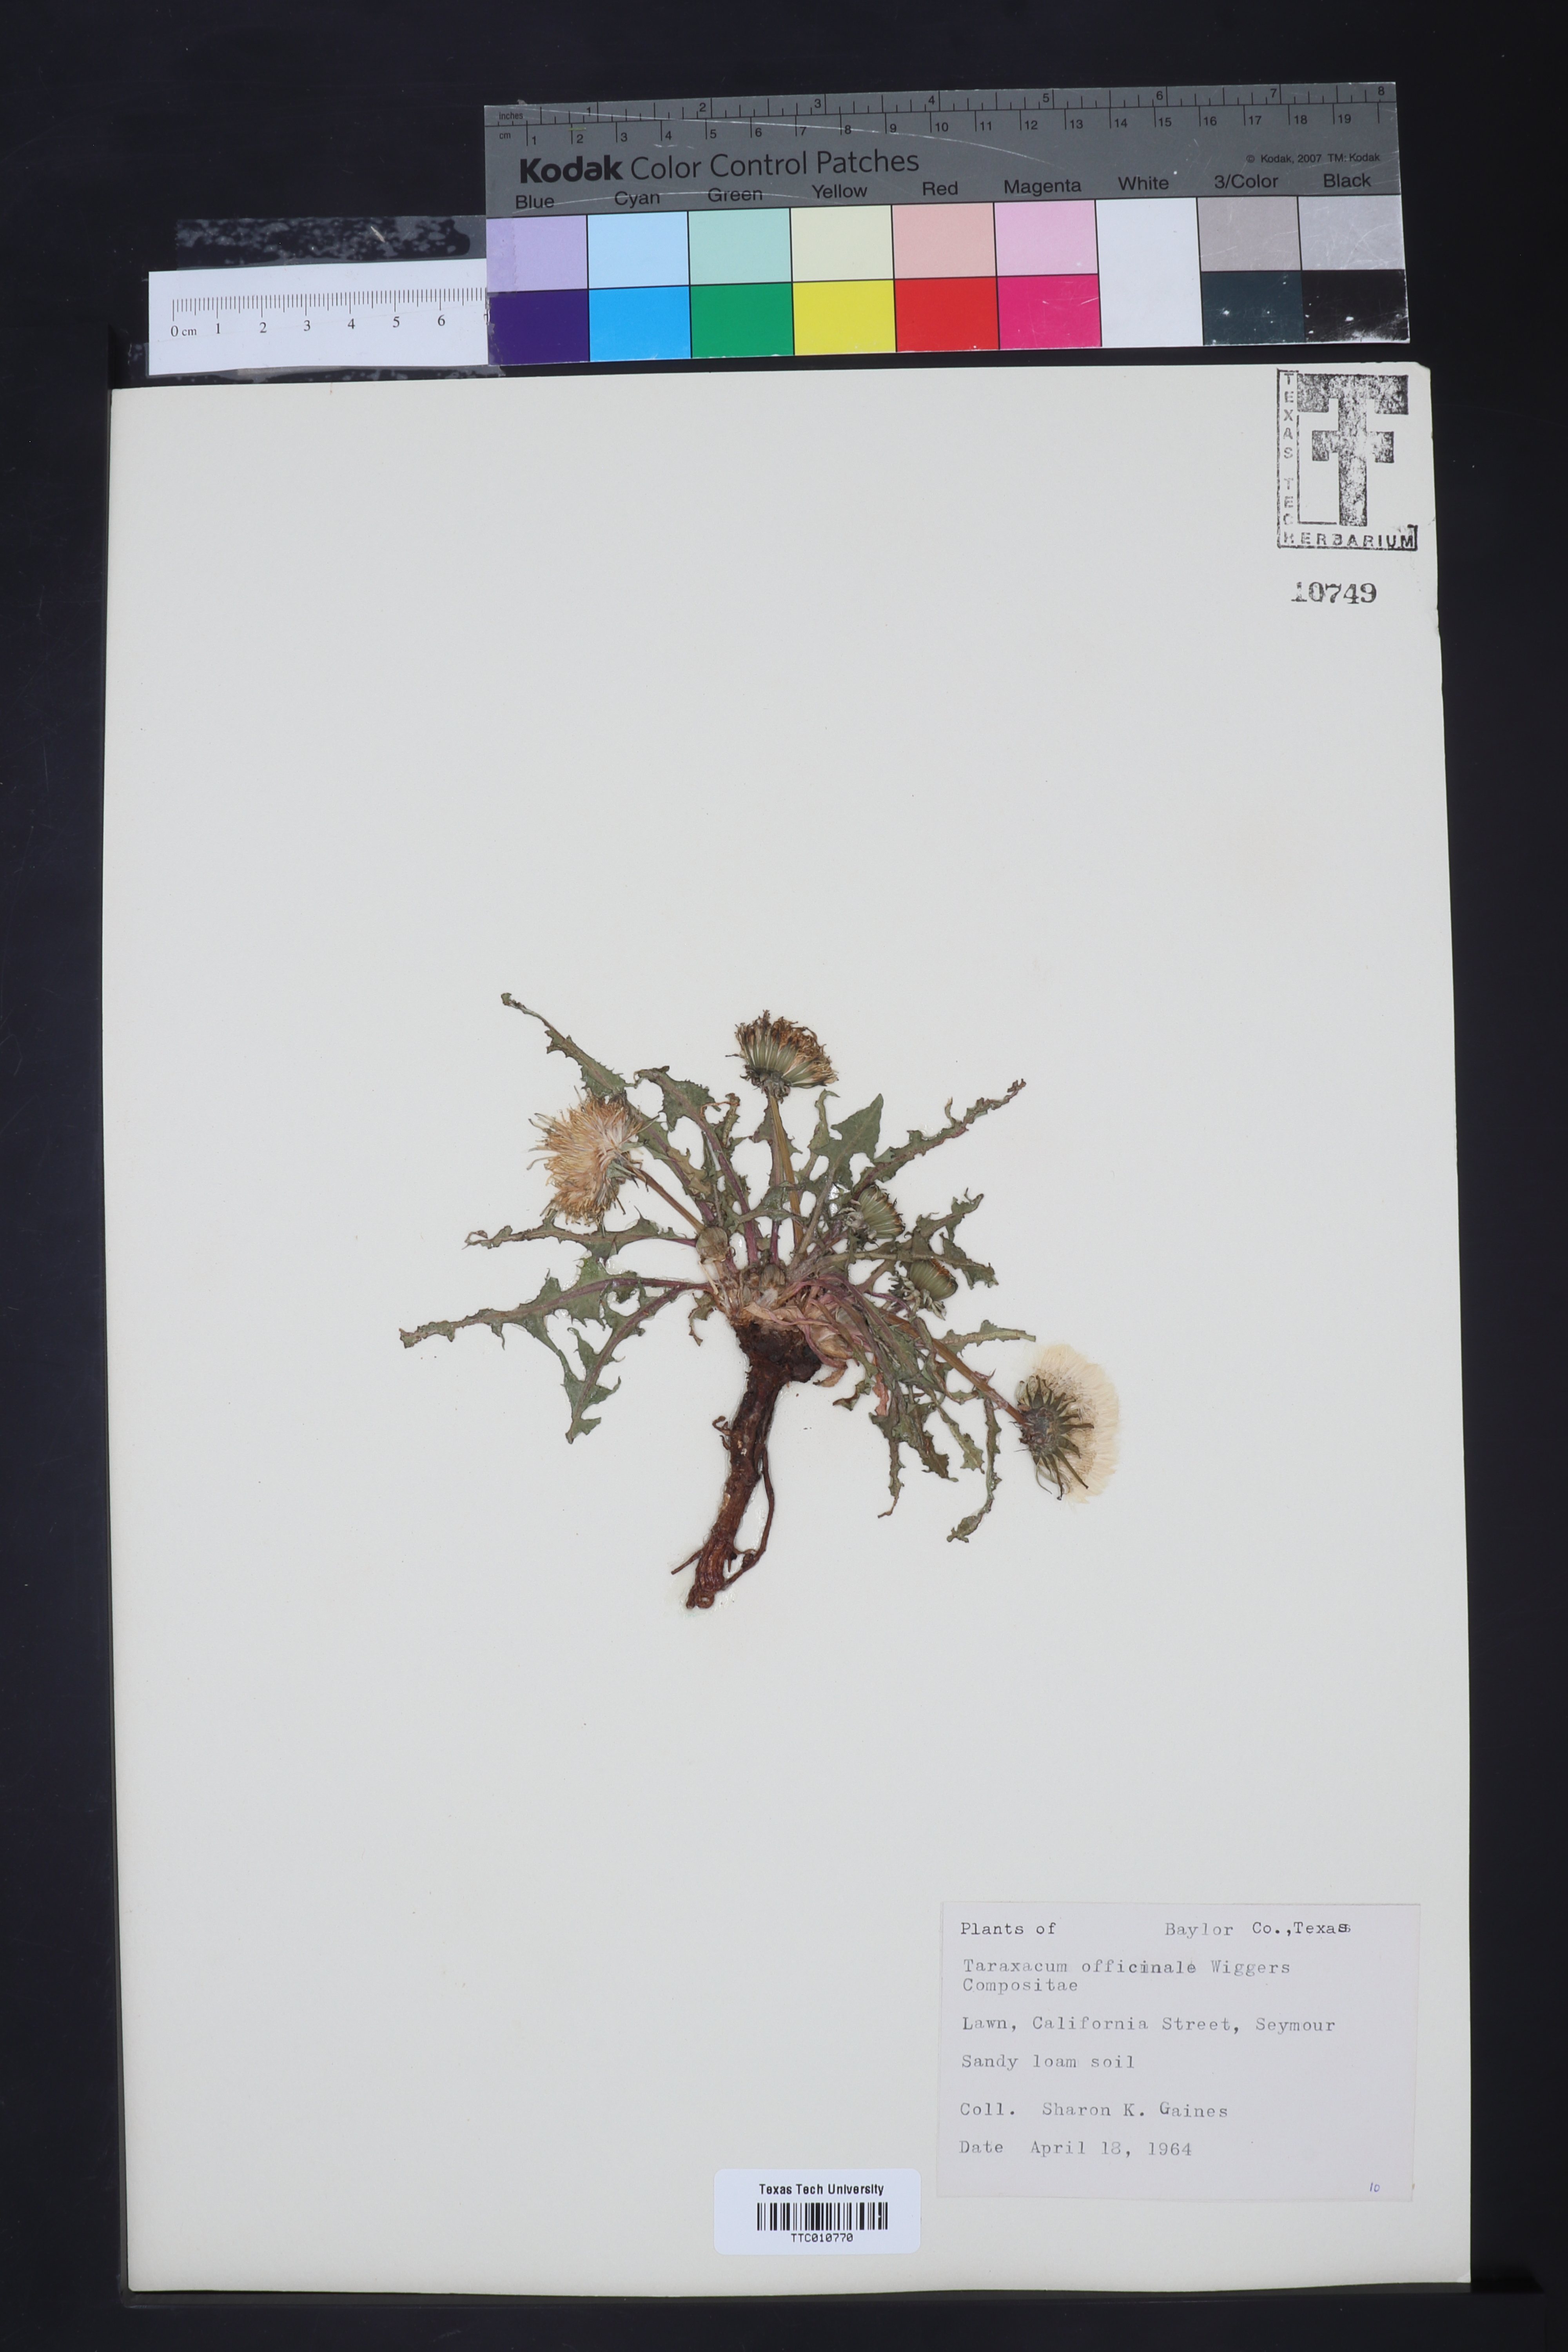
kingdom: Plantae
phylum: Tracheophyta
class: Magnoliopsida
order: Asterales
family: Asteraceae
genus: Taraxacum
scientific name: Taraxacum officinale
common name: Common dandelion
